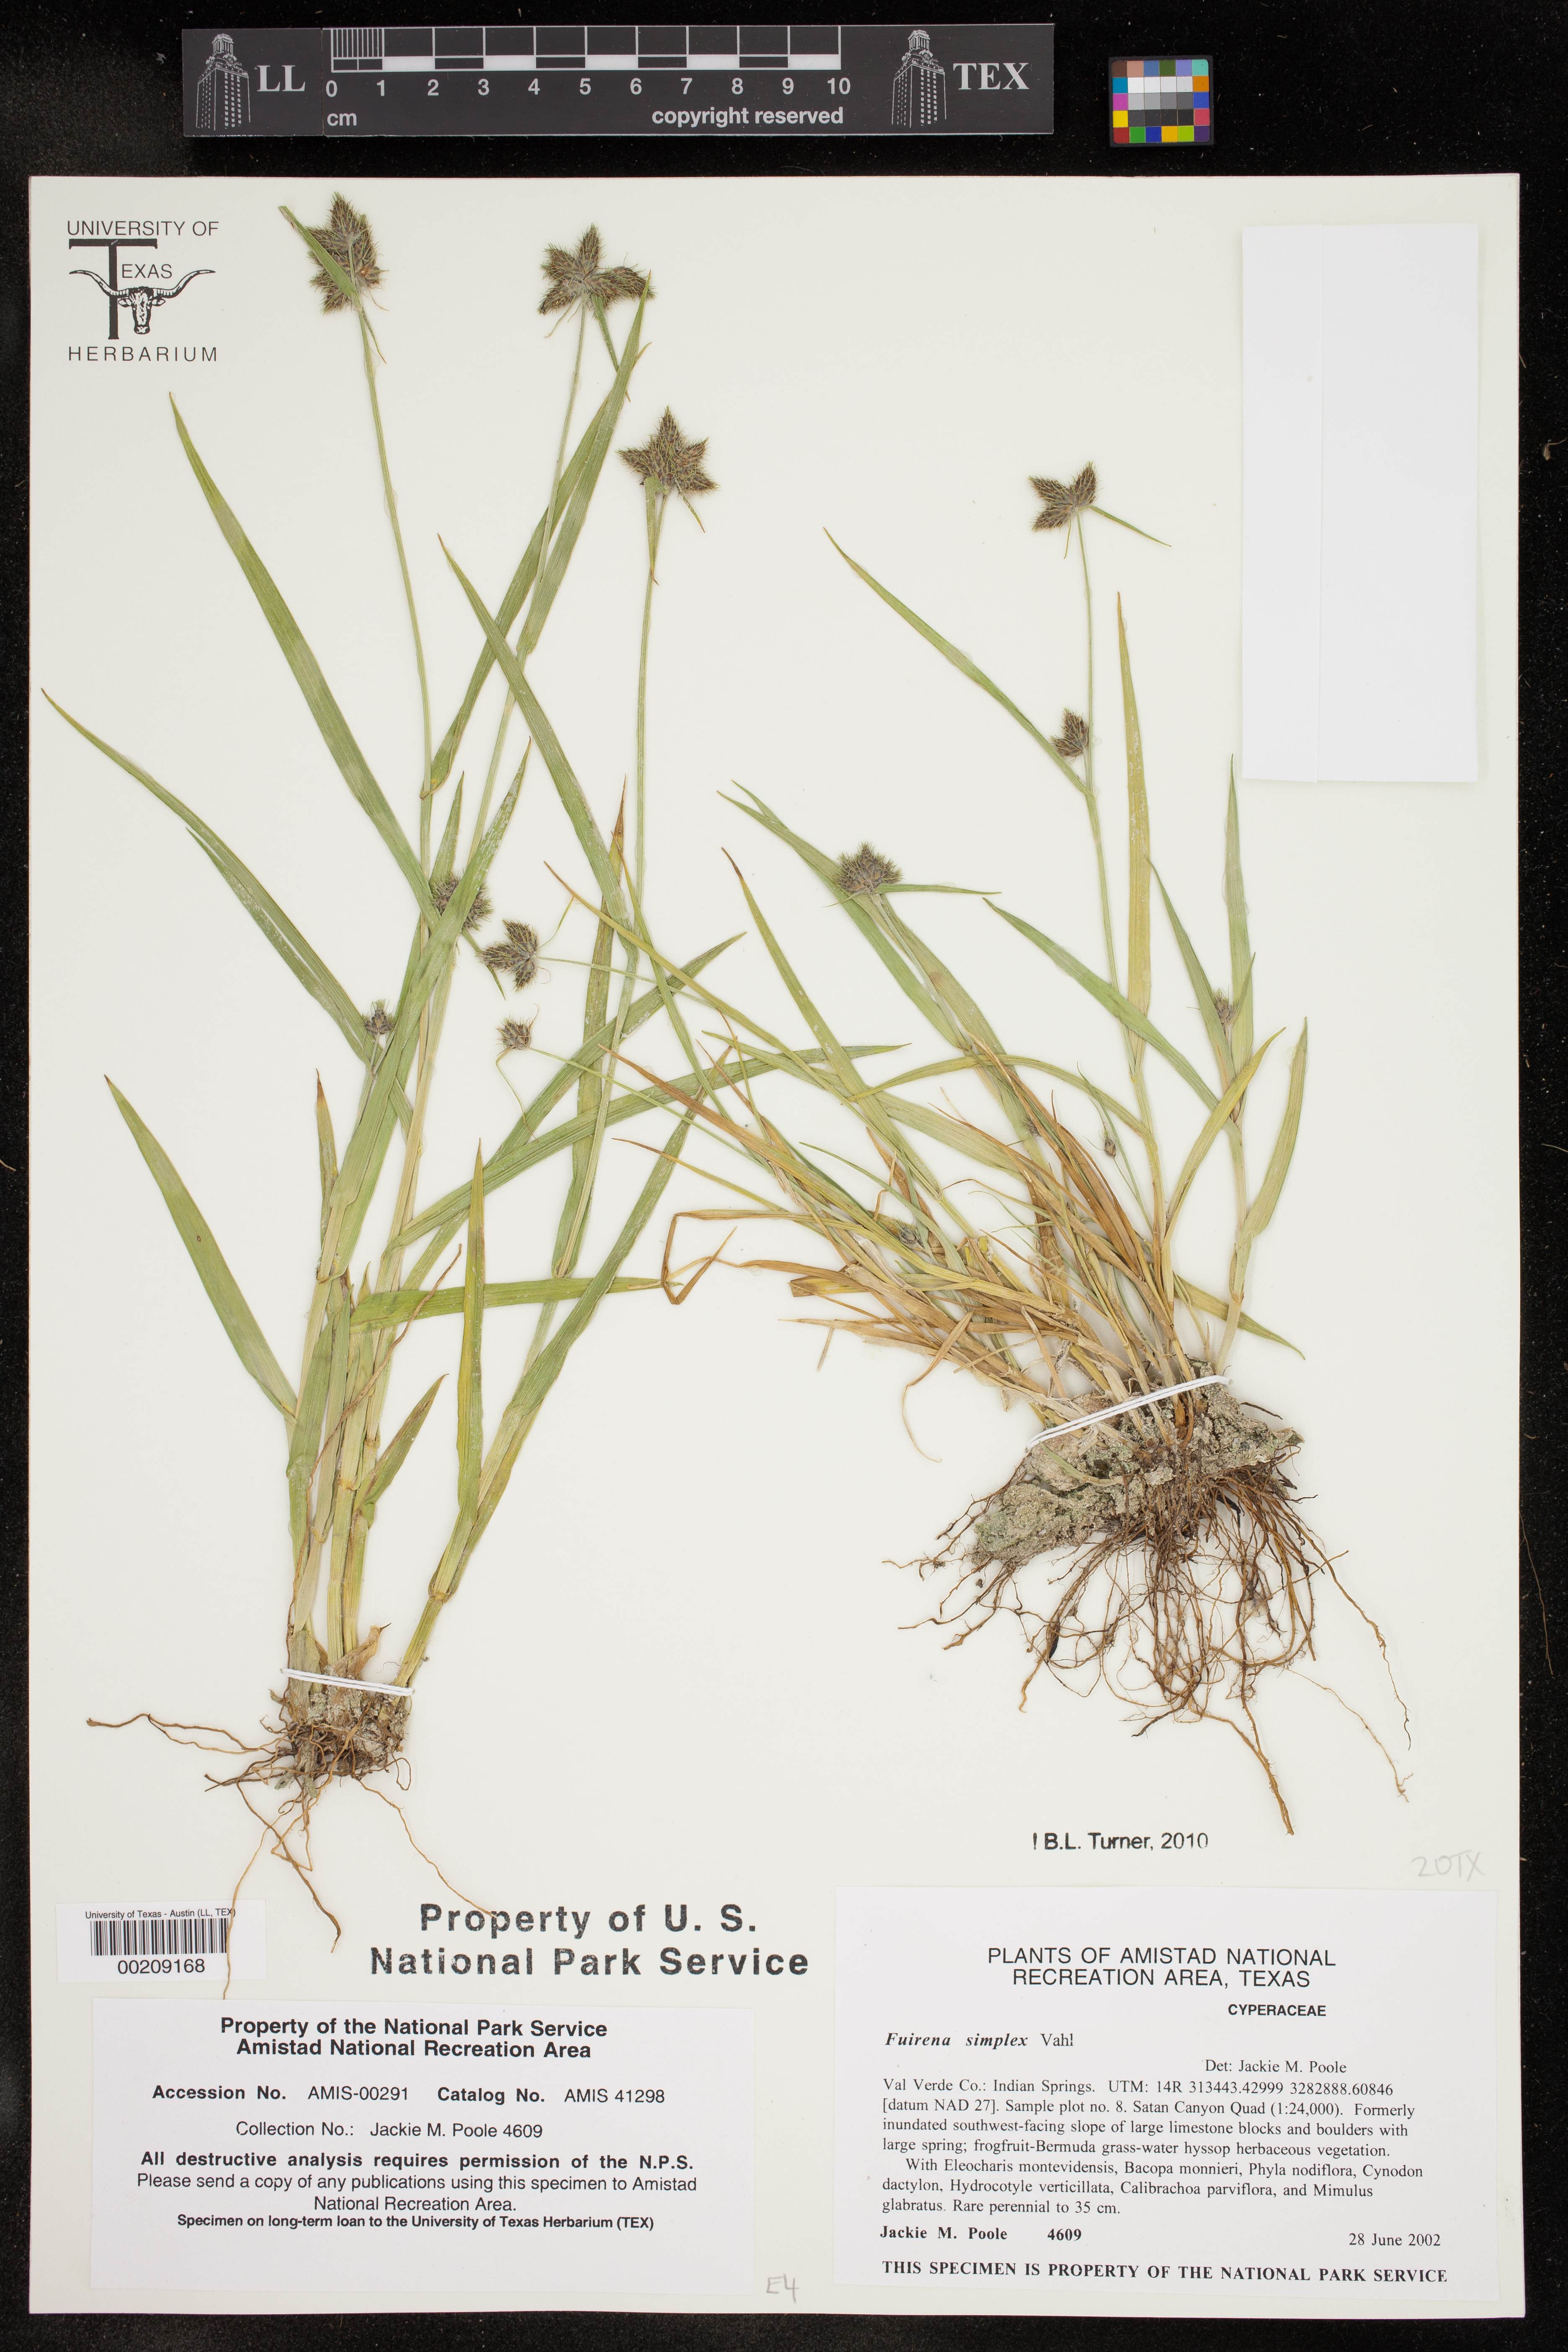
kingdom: Plantae
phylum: Tracheophyta
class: Liliopsida
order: Poales
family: Cyperaceae
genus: Fuirena
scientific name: Fuirena simplex
